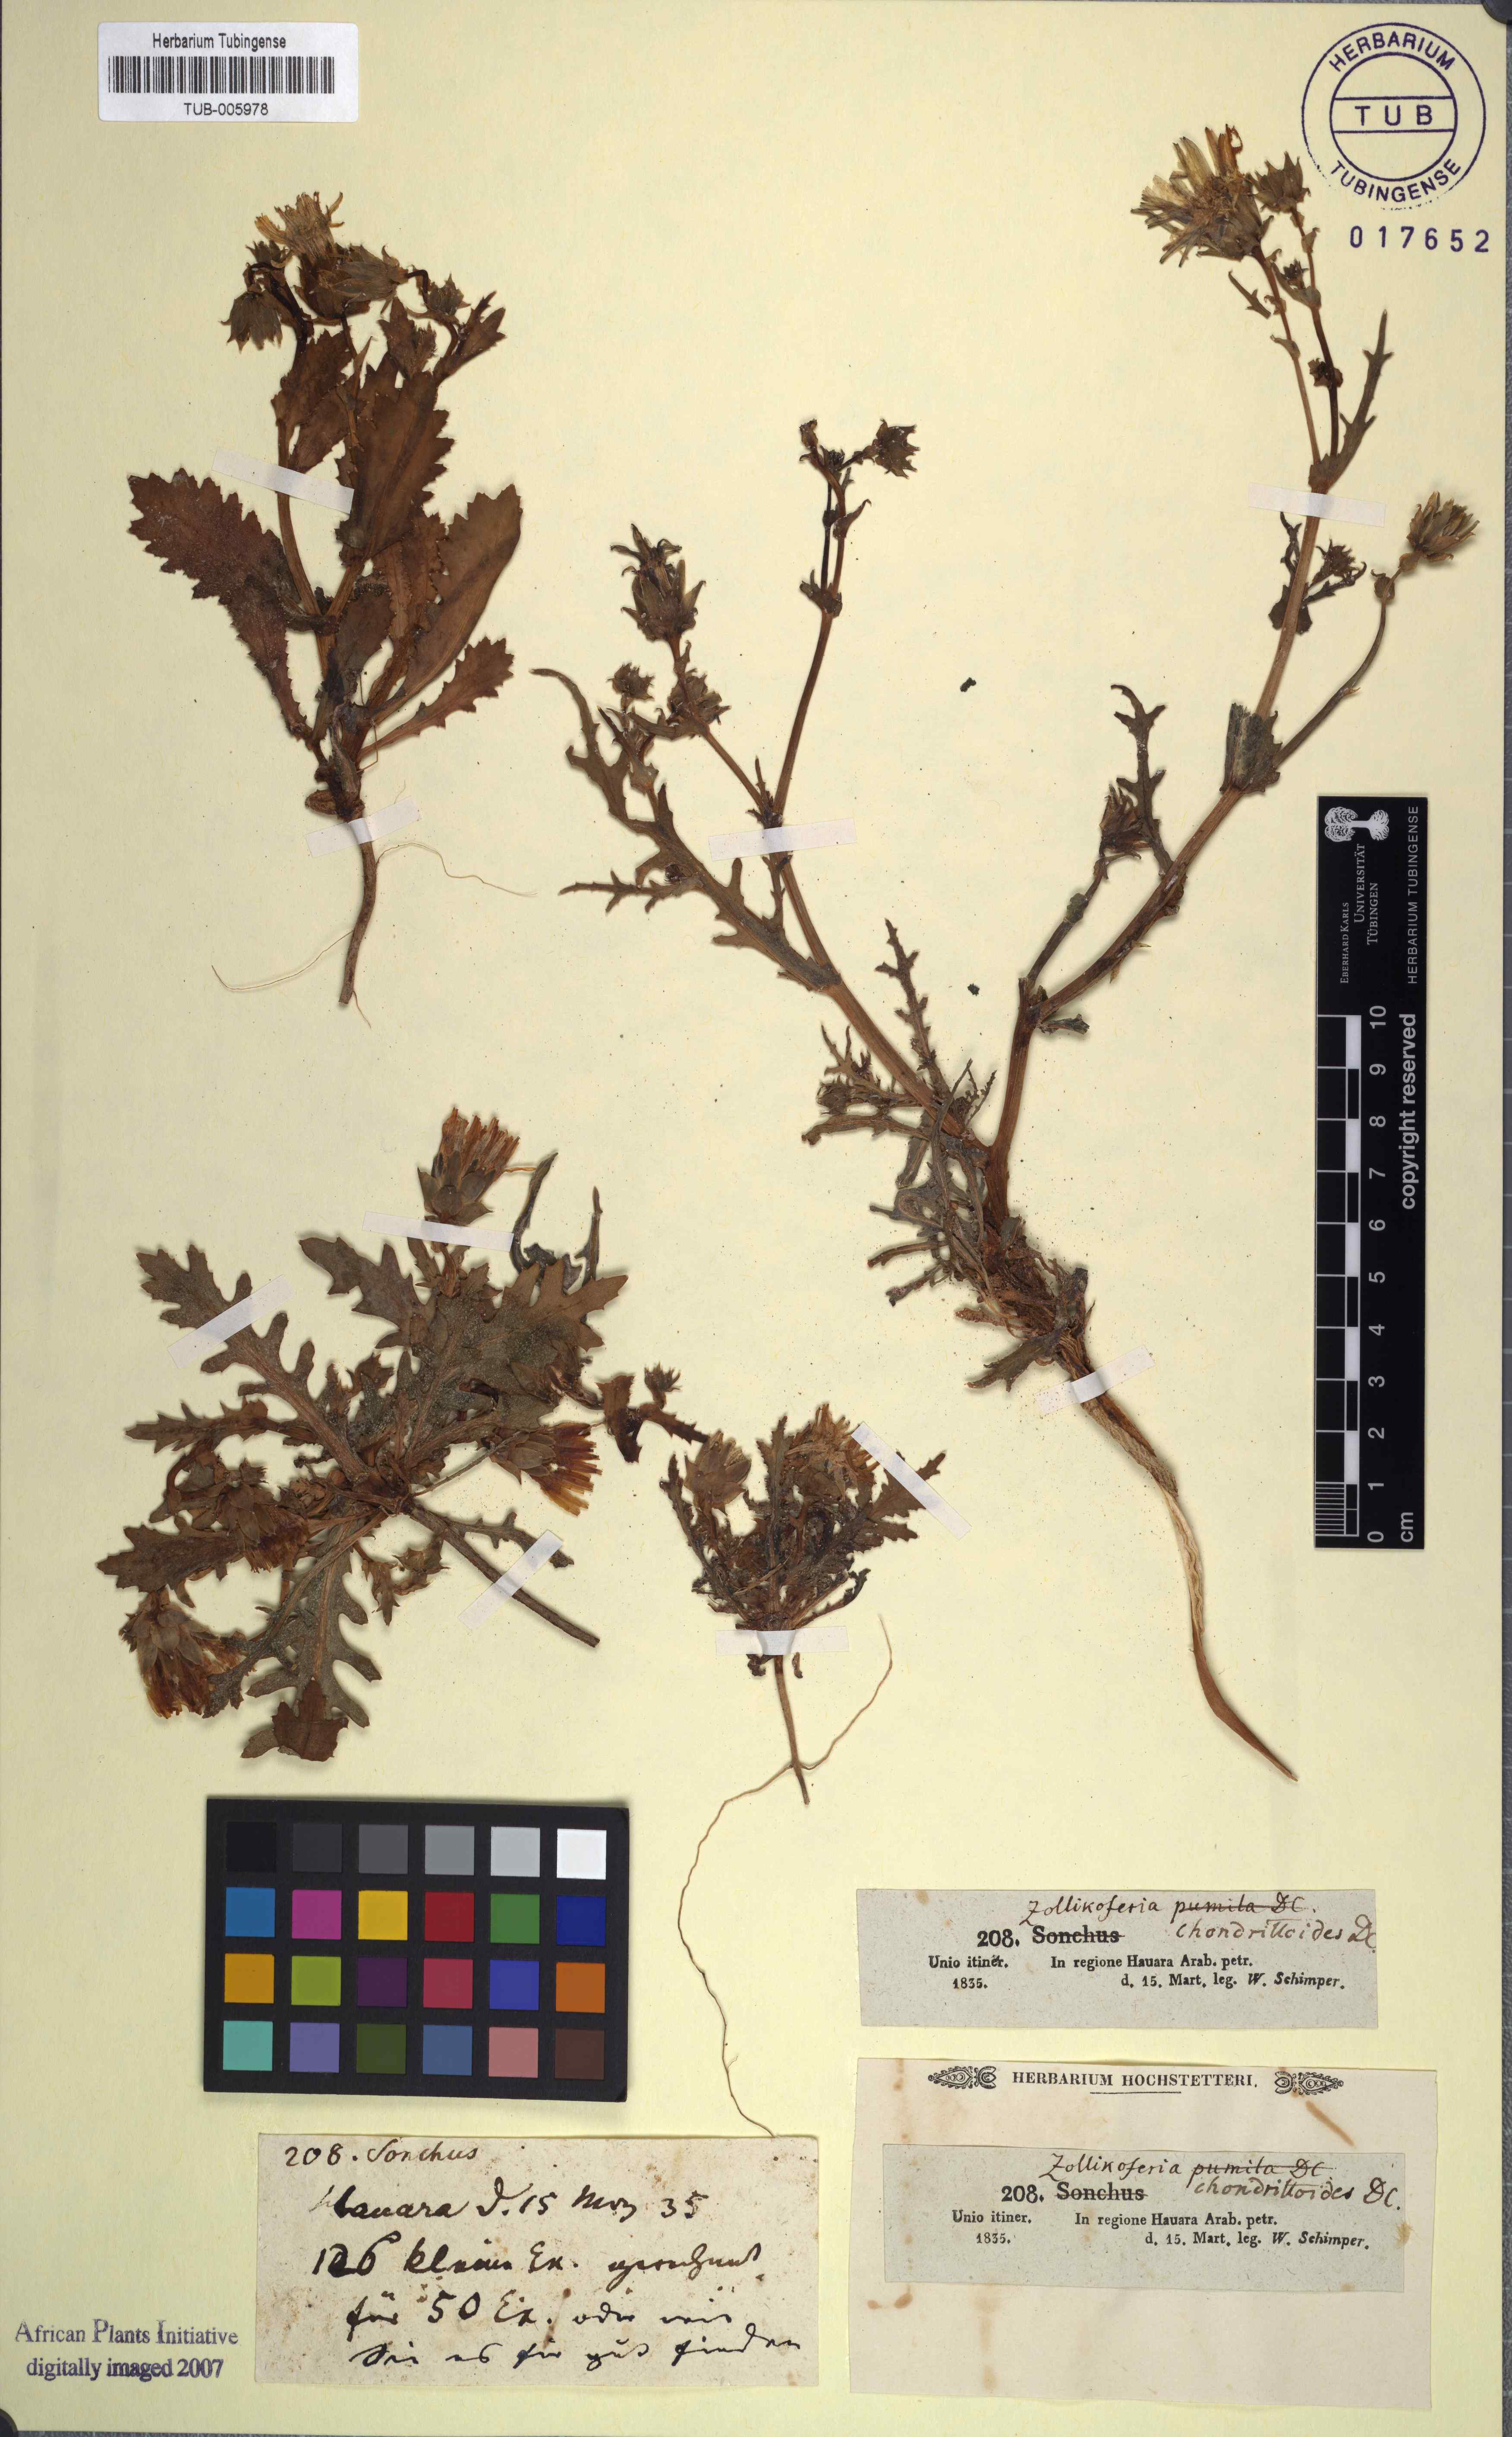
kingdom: Plantae
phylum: Tracheophyta
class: Magnoliopsida
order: Asterales
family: Asteraceae
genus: Launaea
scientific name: Launaea fragilis
